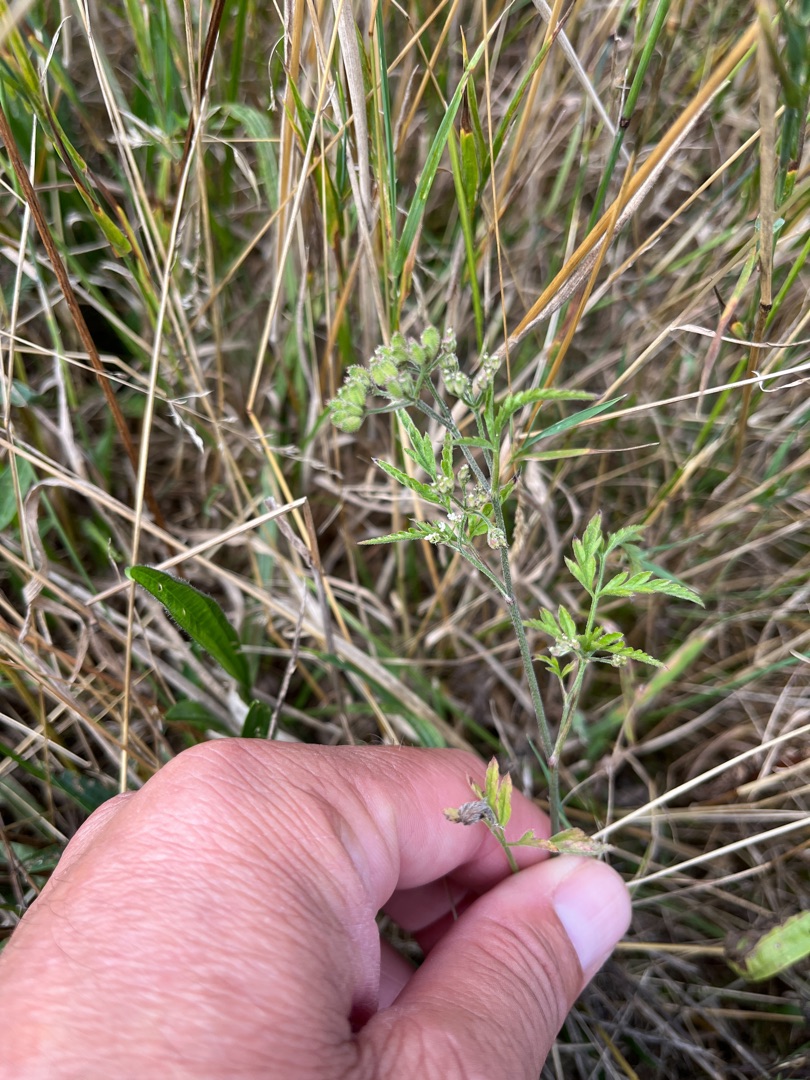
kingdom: Plantae
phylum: Tracheophyta
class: Magnoliopsida
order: Apiales
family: Apiaceae
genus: Torilis
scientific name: Torilis japonica
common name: Hvas randfrø
